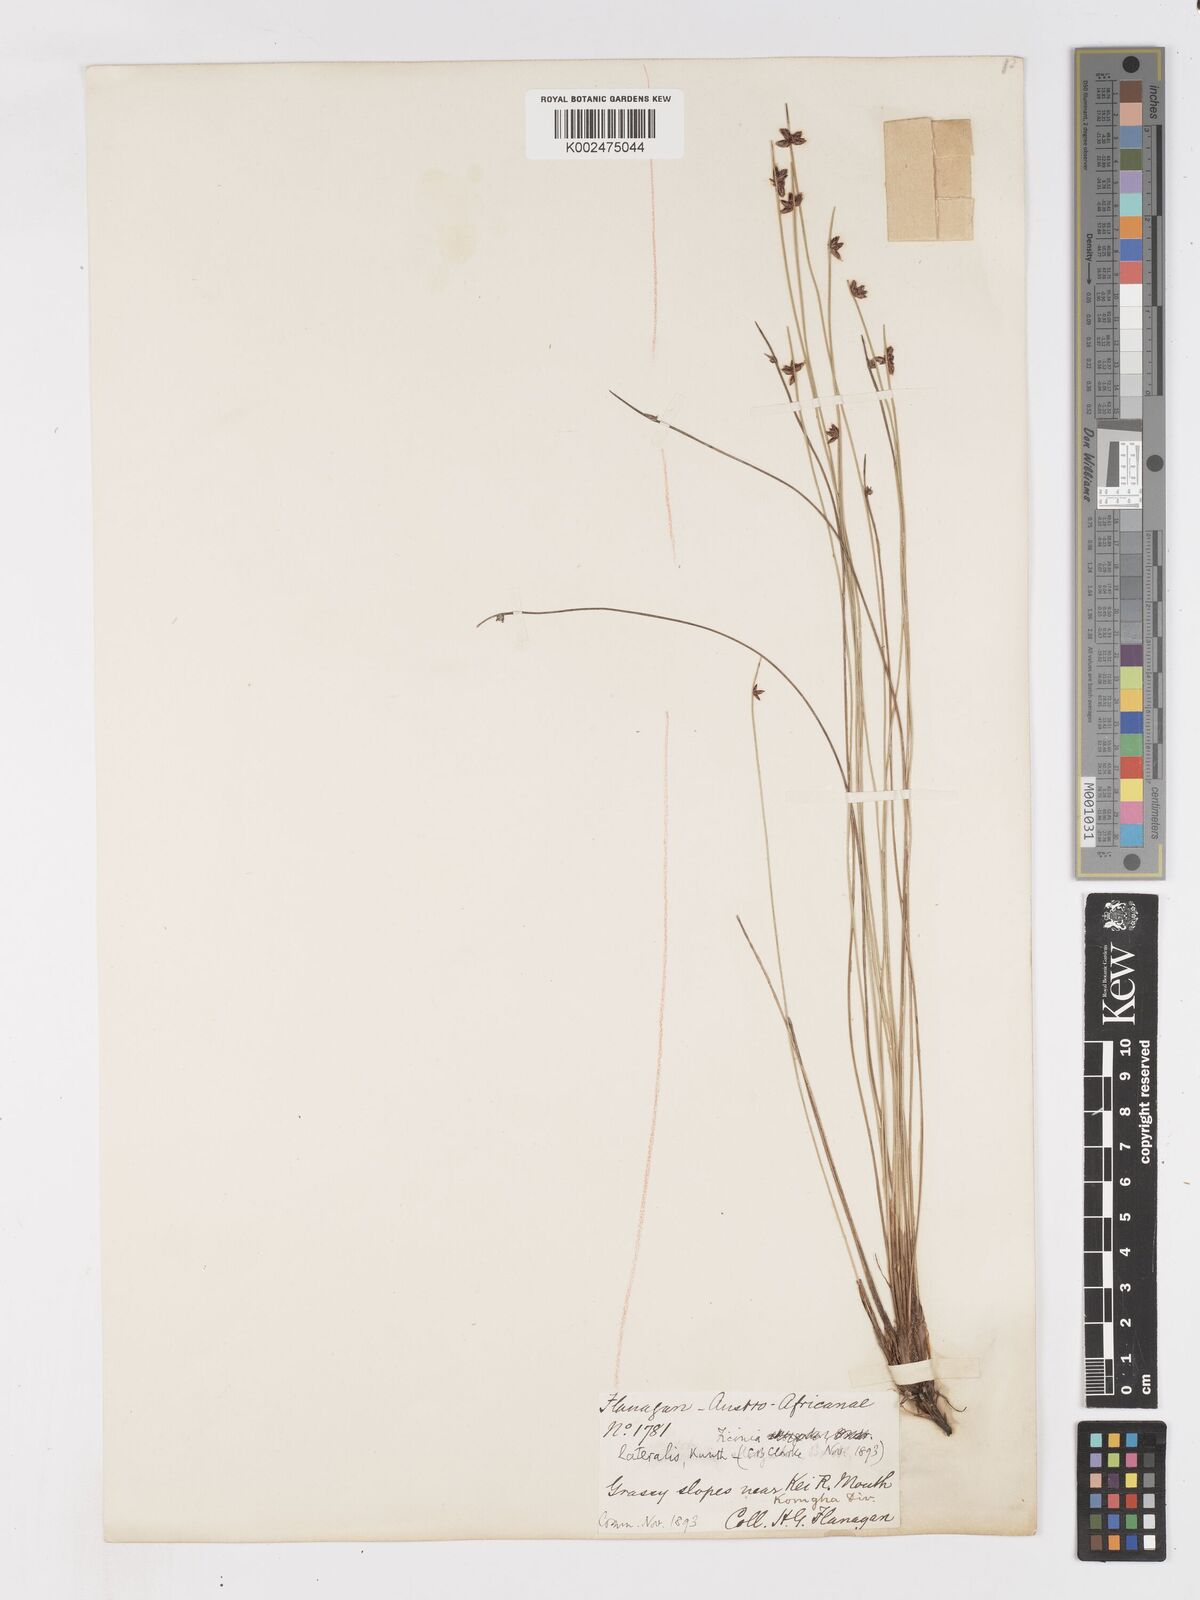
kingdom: Plantae
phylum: Tracheophyta
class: Liliopsida
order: Poales
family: Cyperaceae
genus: Ficinia
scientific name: Ficinia lateralis
